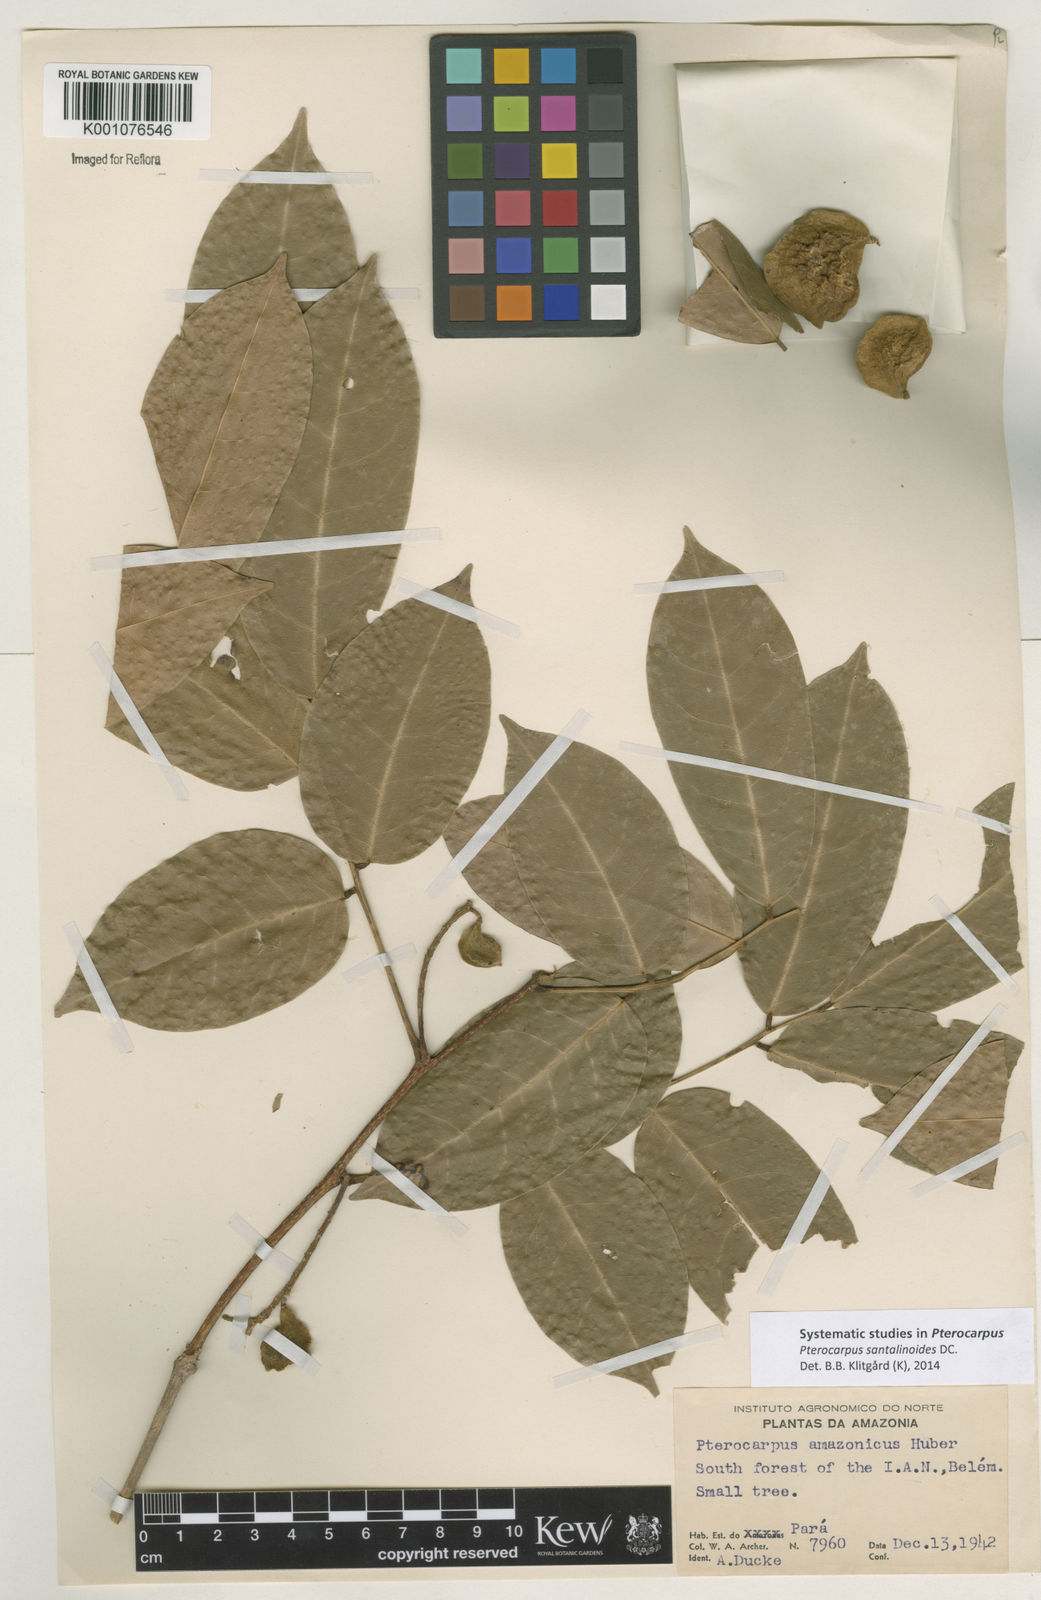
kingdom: Plantae
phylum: Tracheophyta
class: Magnoliopsida
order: Fabales
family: Fabaceae
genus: Pterocarpus
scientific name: Pterocarpus santalinoides
